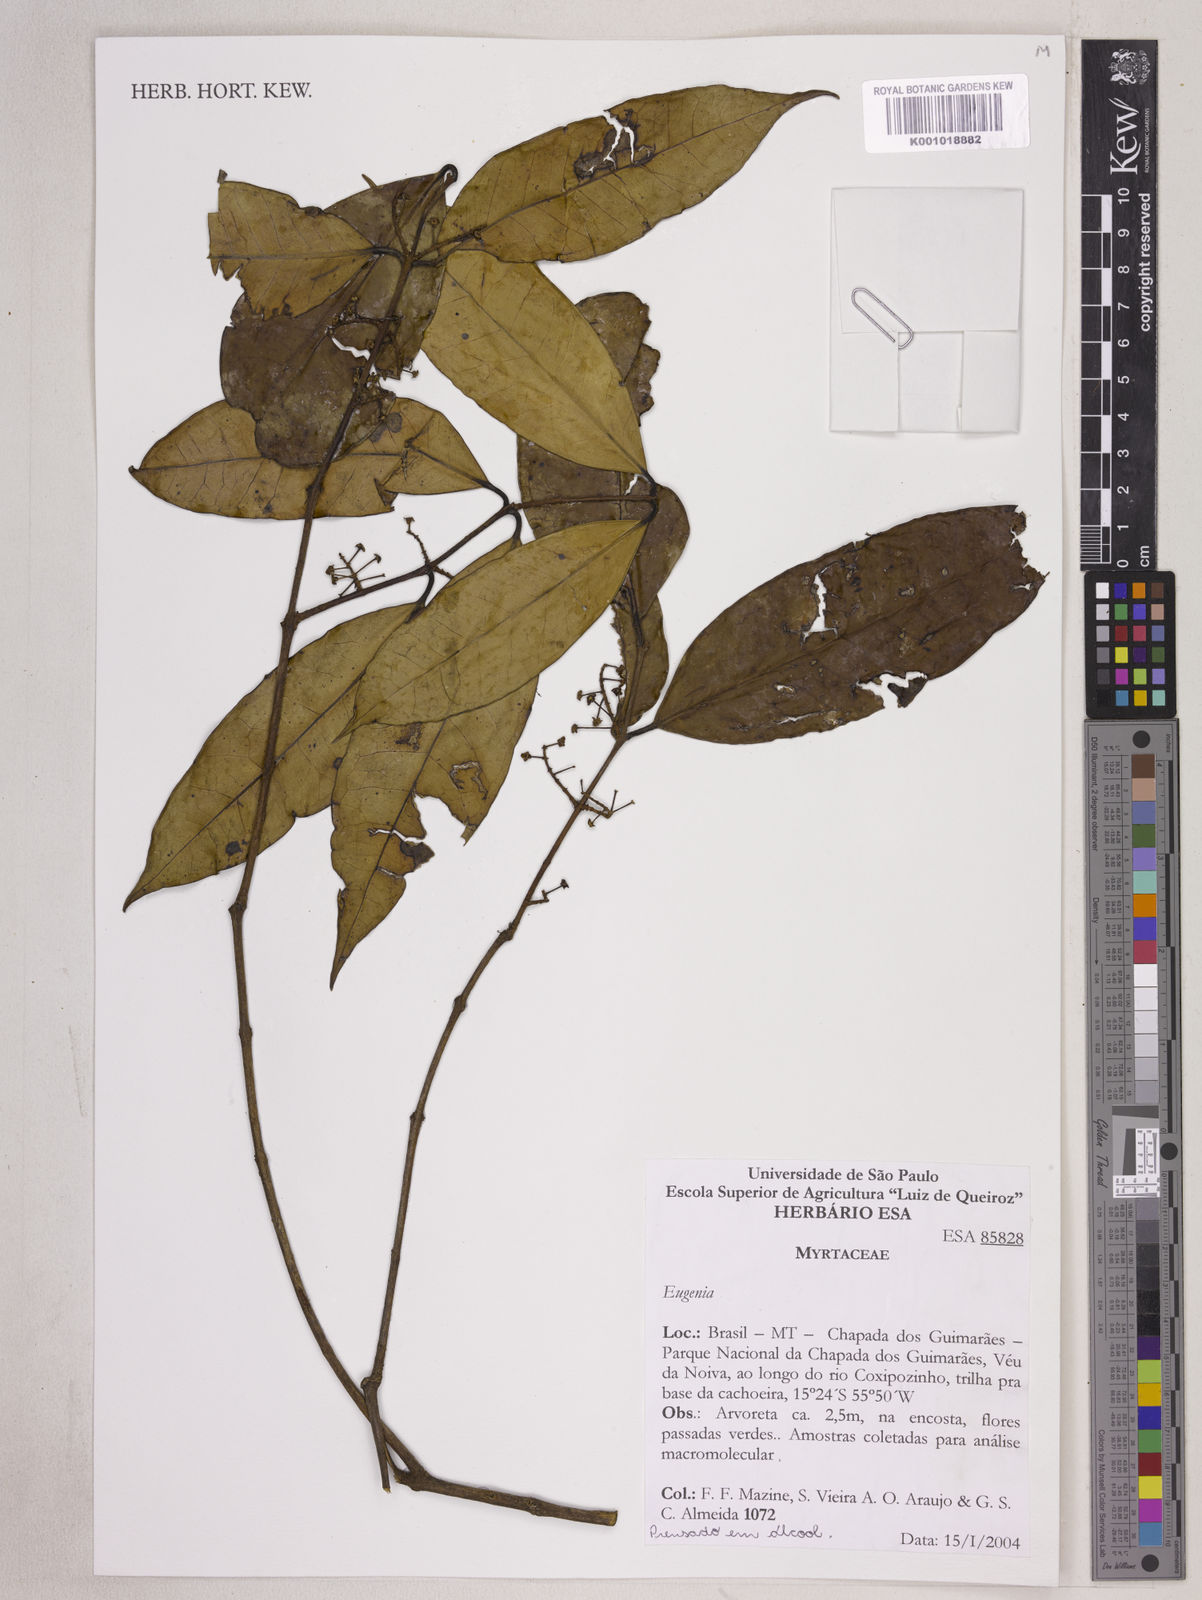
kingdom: Plantae
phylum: Tracheophyta
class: Magnoliopsida
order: Myrtales
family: Myrtaceae
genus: Eugenia
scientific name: Eugenia densiracemosa
